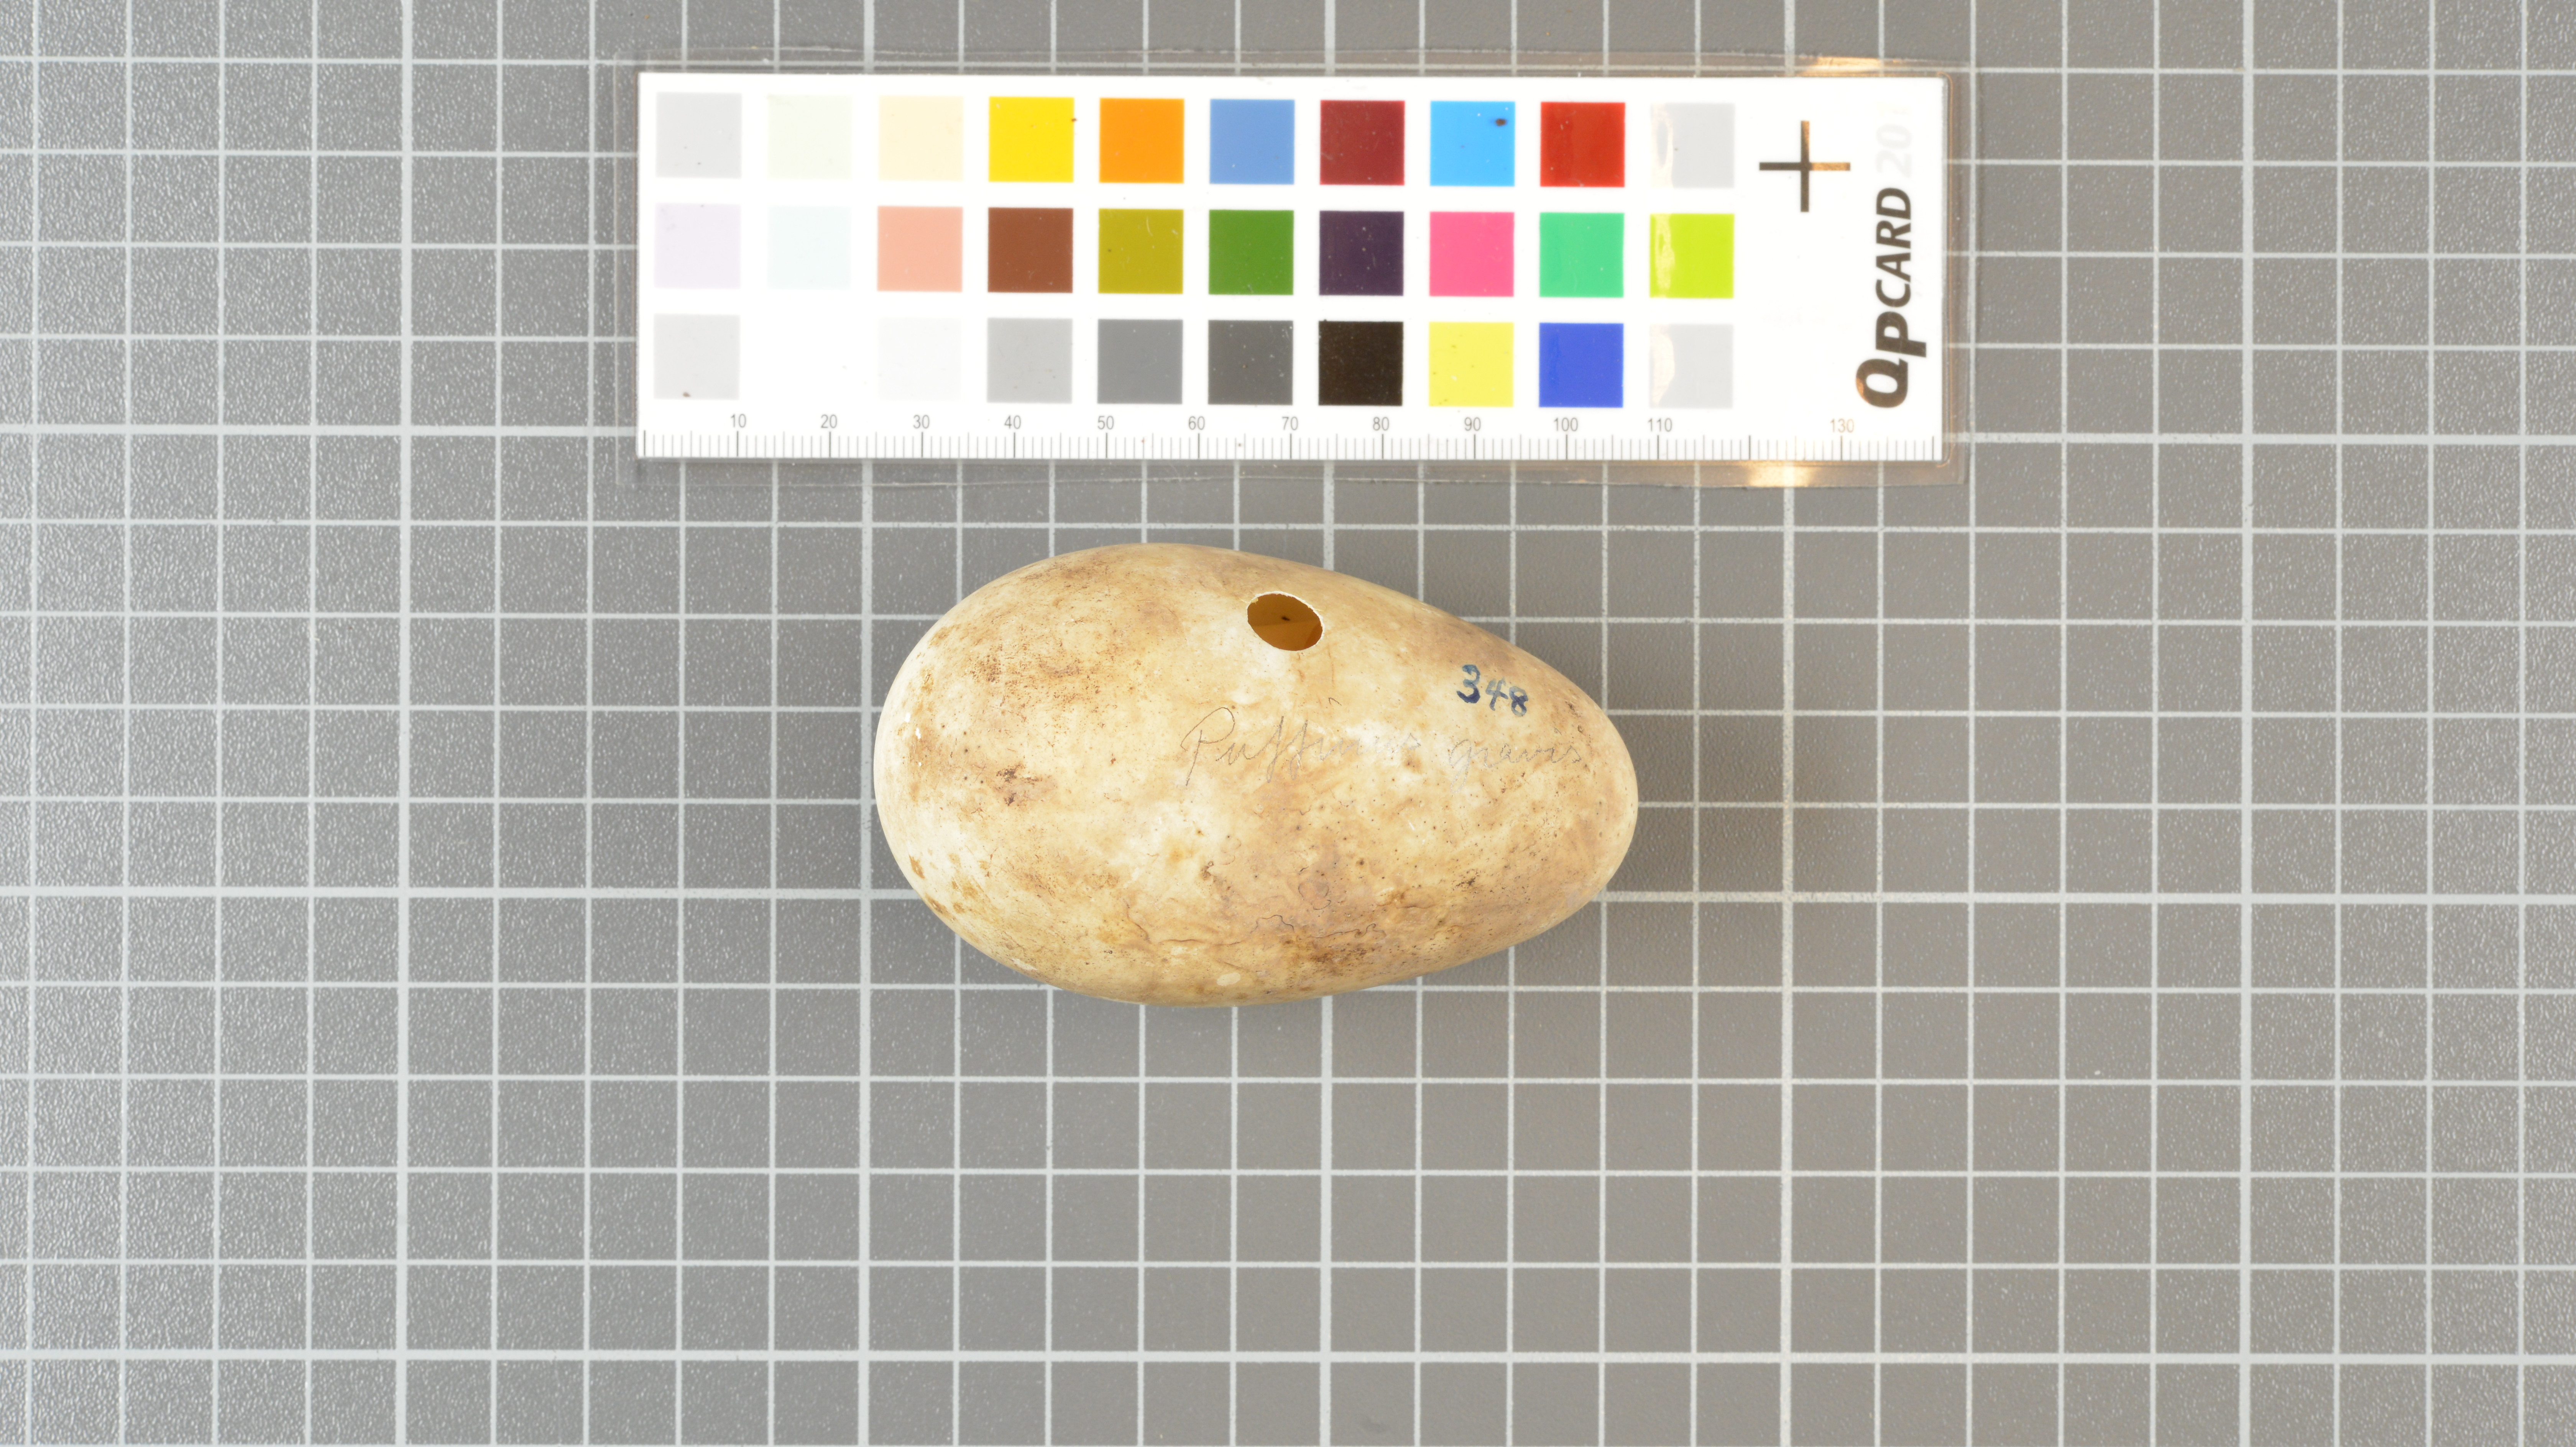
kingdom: Animalia
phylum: Chordata
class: Aves
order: Procellariiformes
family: Procellariidae
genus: Puffinus
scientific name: Puffinus gravis
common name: Great shearwater
